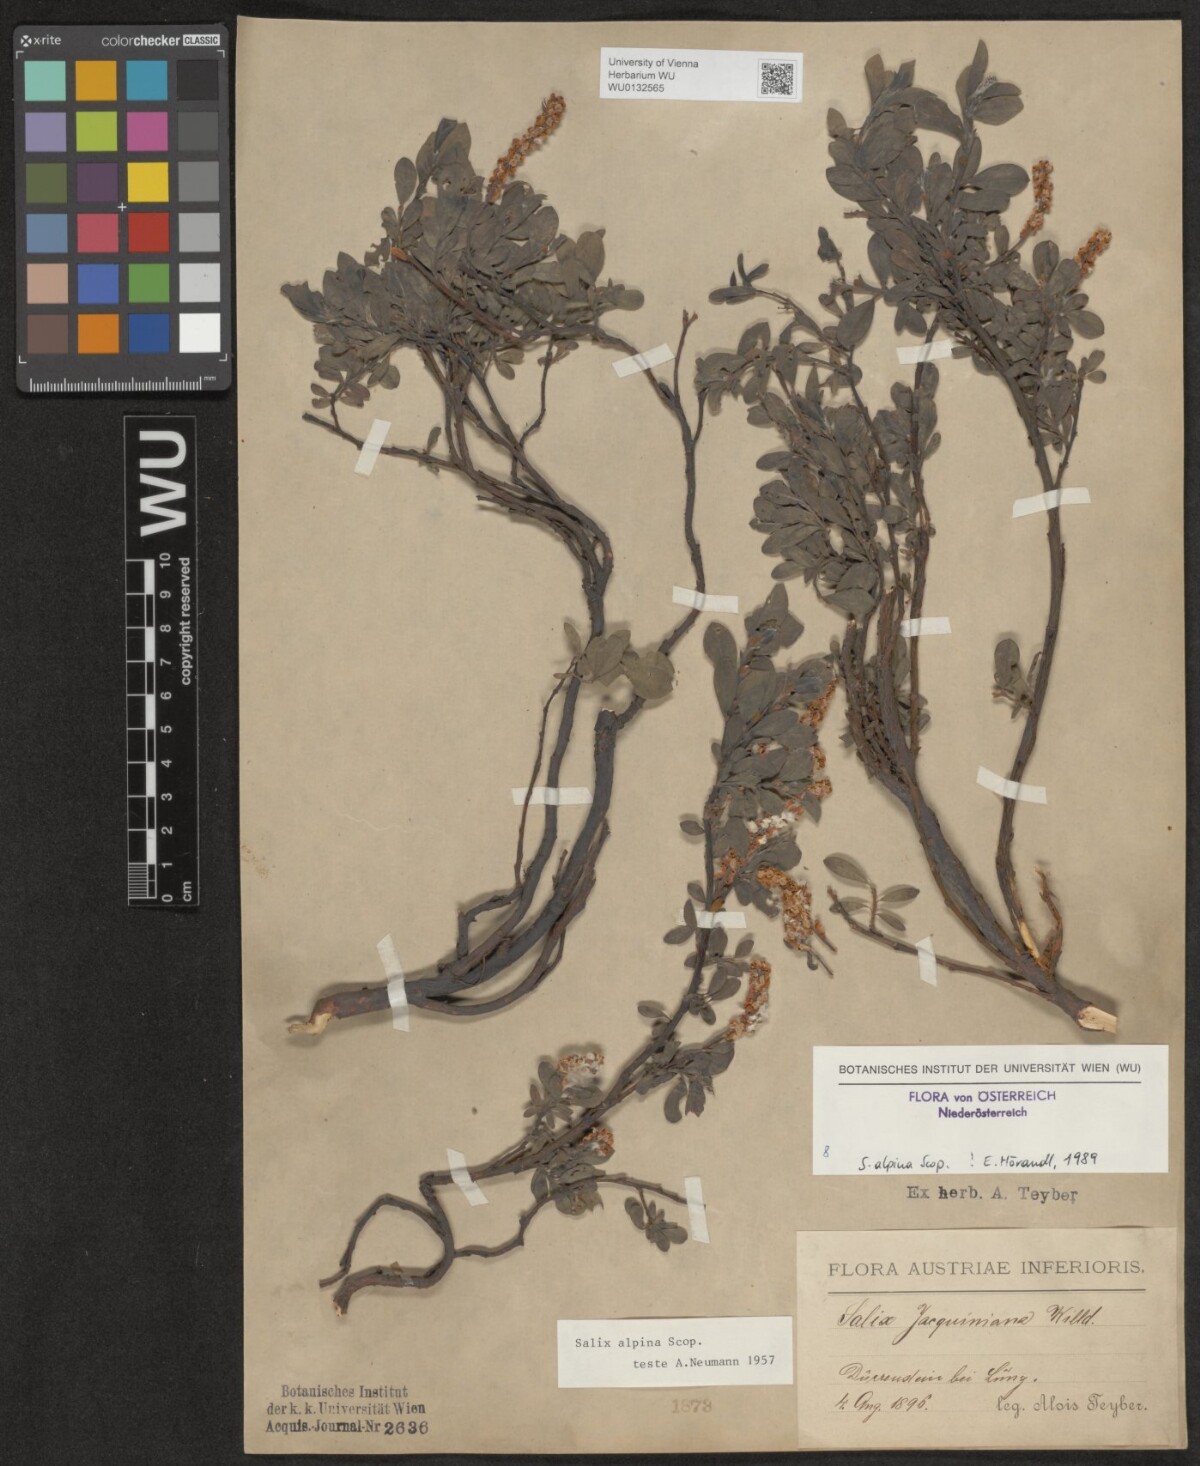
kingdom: Plantae
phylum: Tracheophyta
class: Magnoliopsida
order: Malpighiales
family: Salicaceae
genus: Salix
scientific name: Salix alpina
